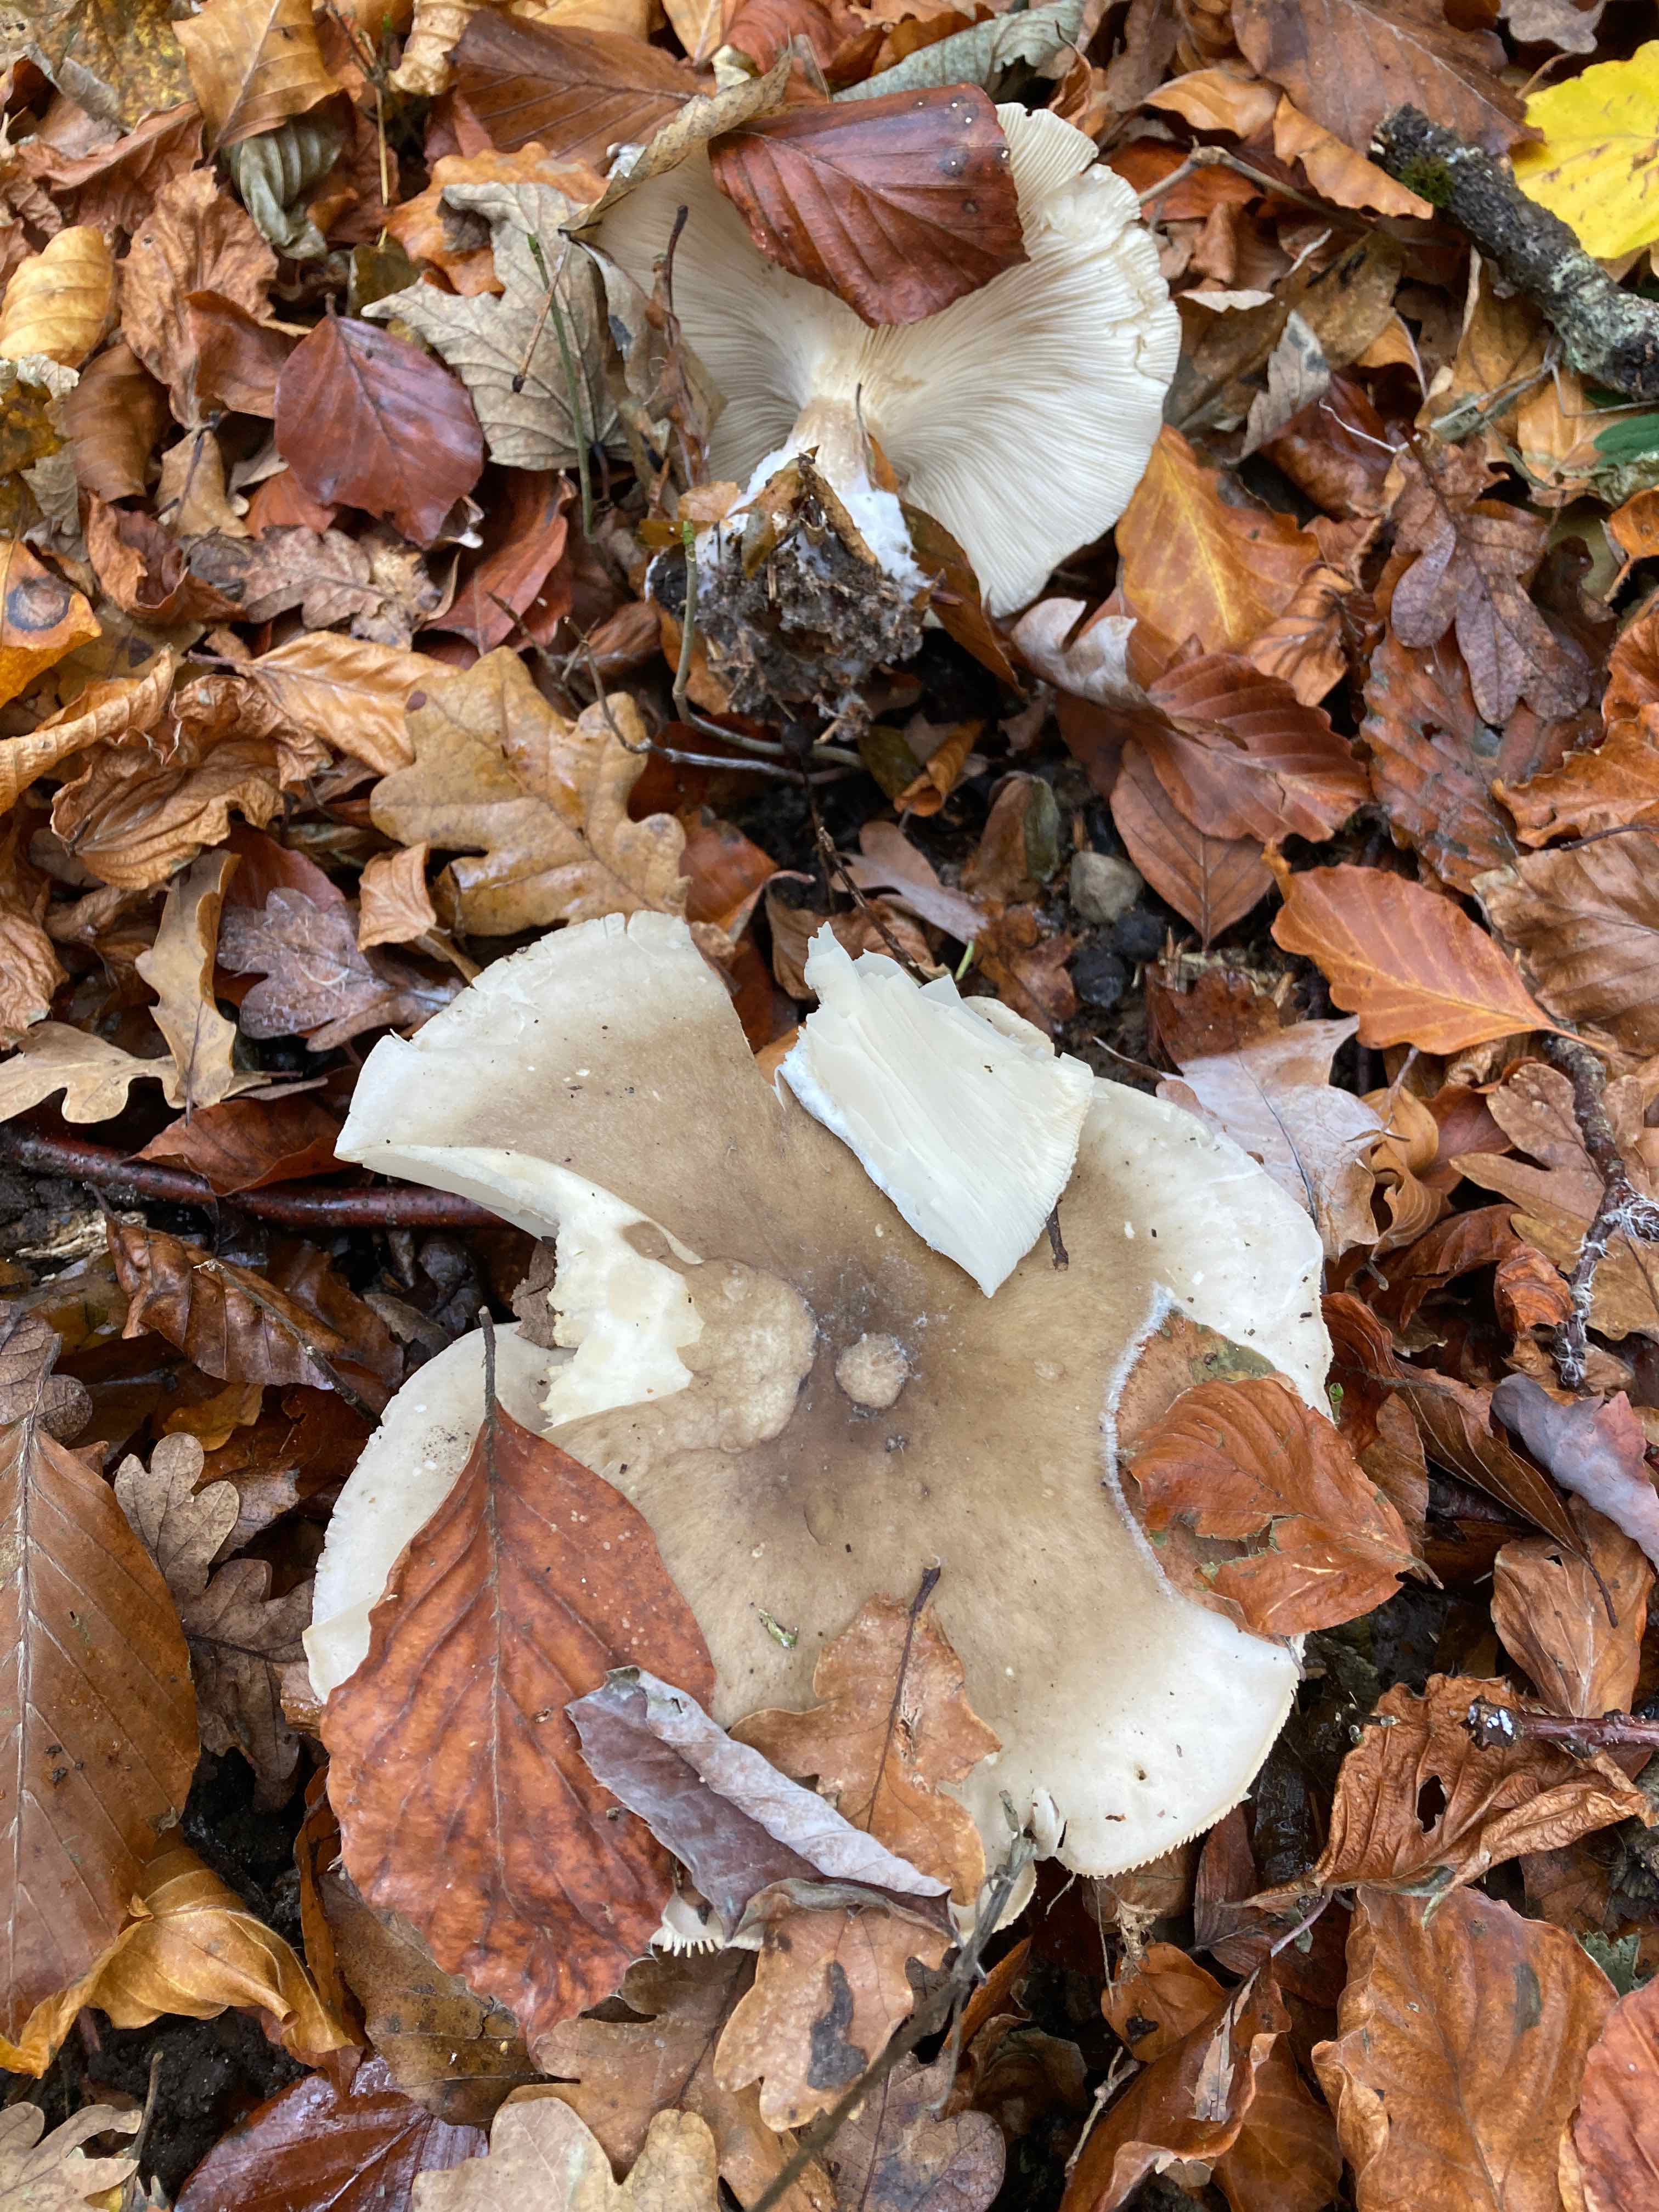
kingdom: Fungi
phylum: Basidiomycota
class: Agaricomycetes
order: Agaricales
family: Tricholomataceae
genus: Clitocybe
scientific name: Clitocybe nebularis
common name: tåge-tragthat
